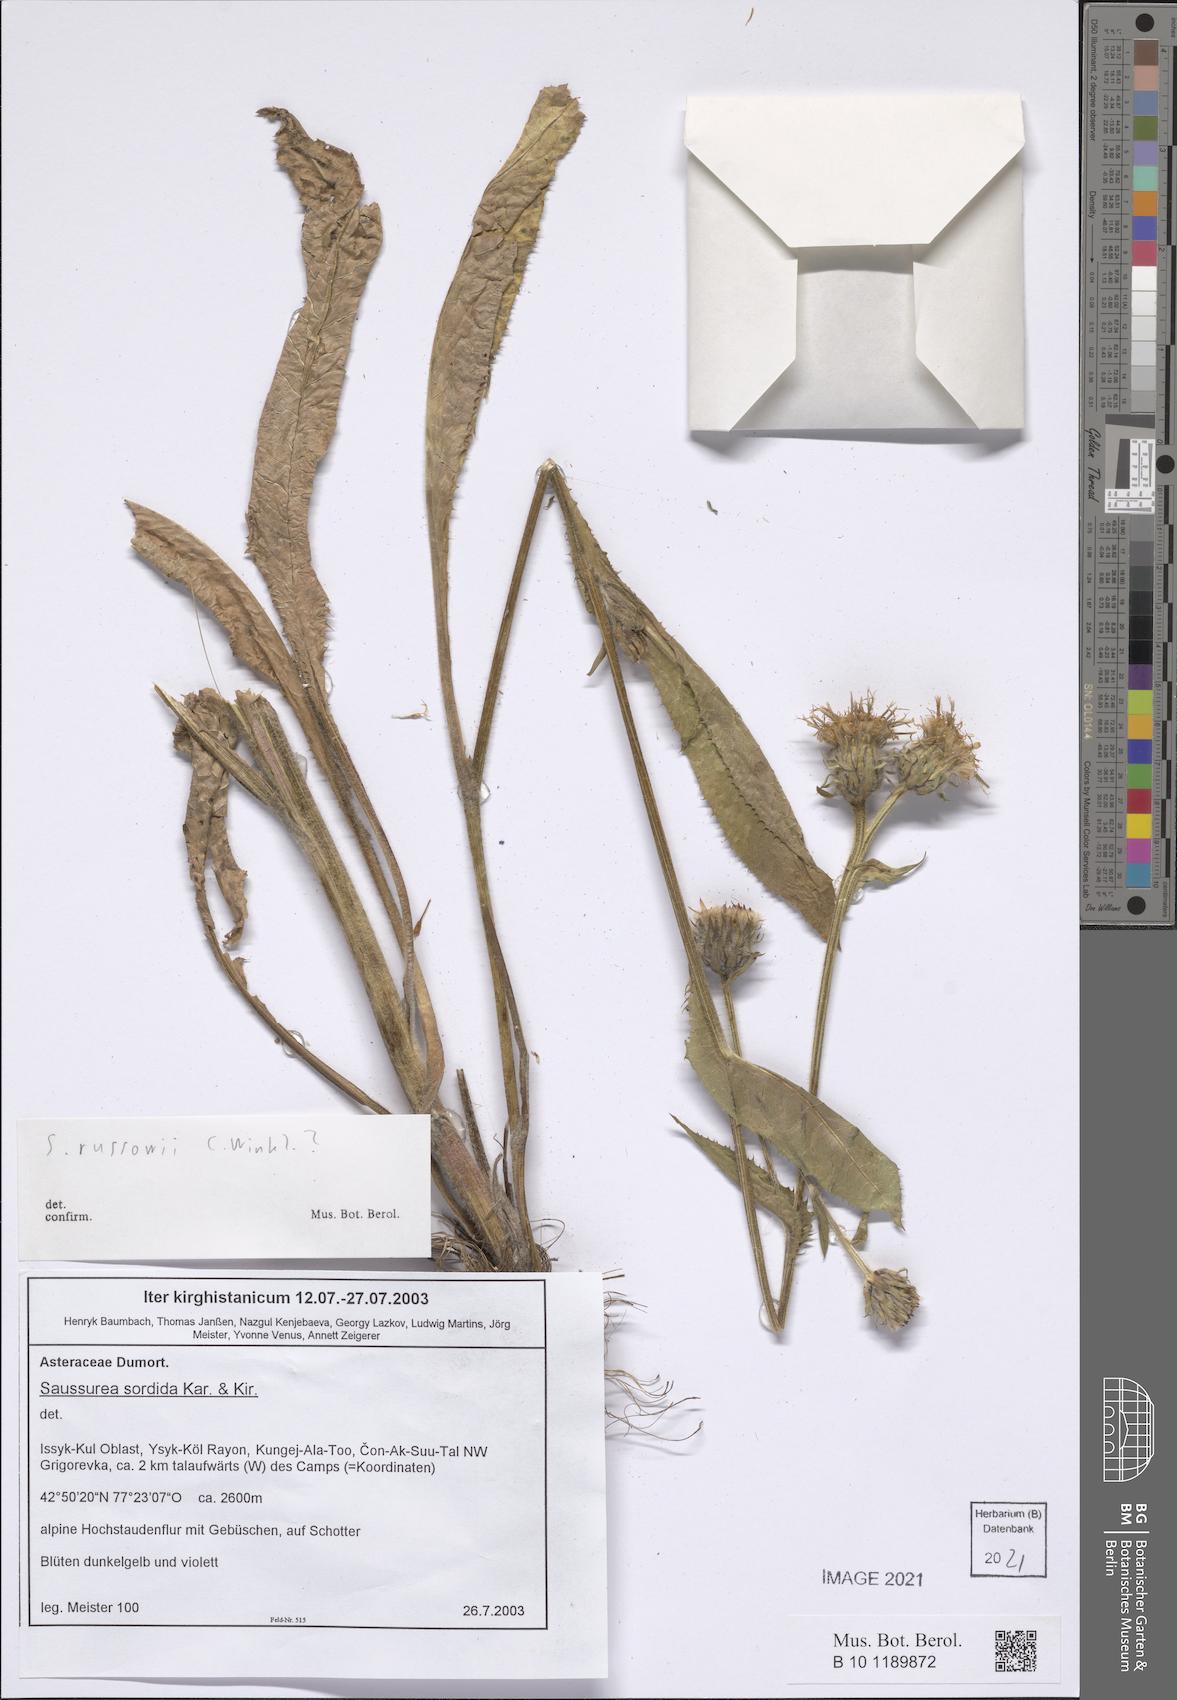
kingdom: Plantae
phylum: Tracheophyta
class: Magnoliopsida
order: Asterales
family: Asteraceae
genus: Saussurea
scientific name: Saussurea sordida
